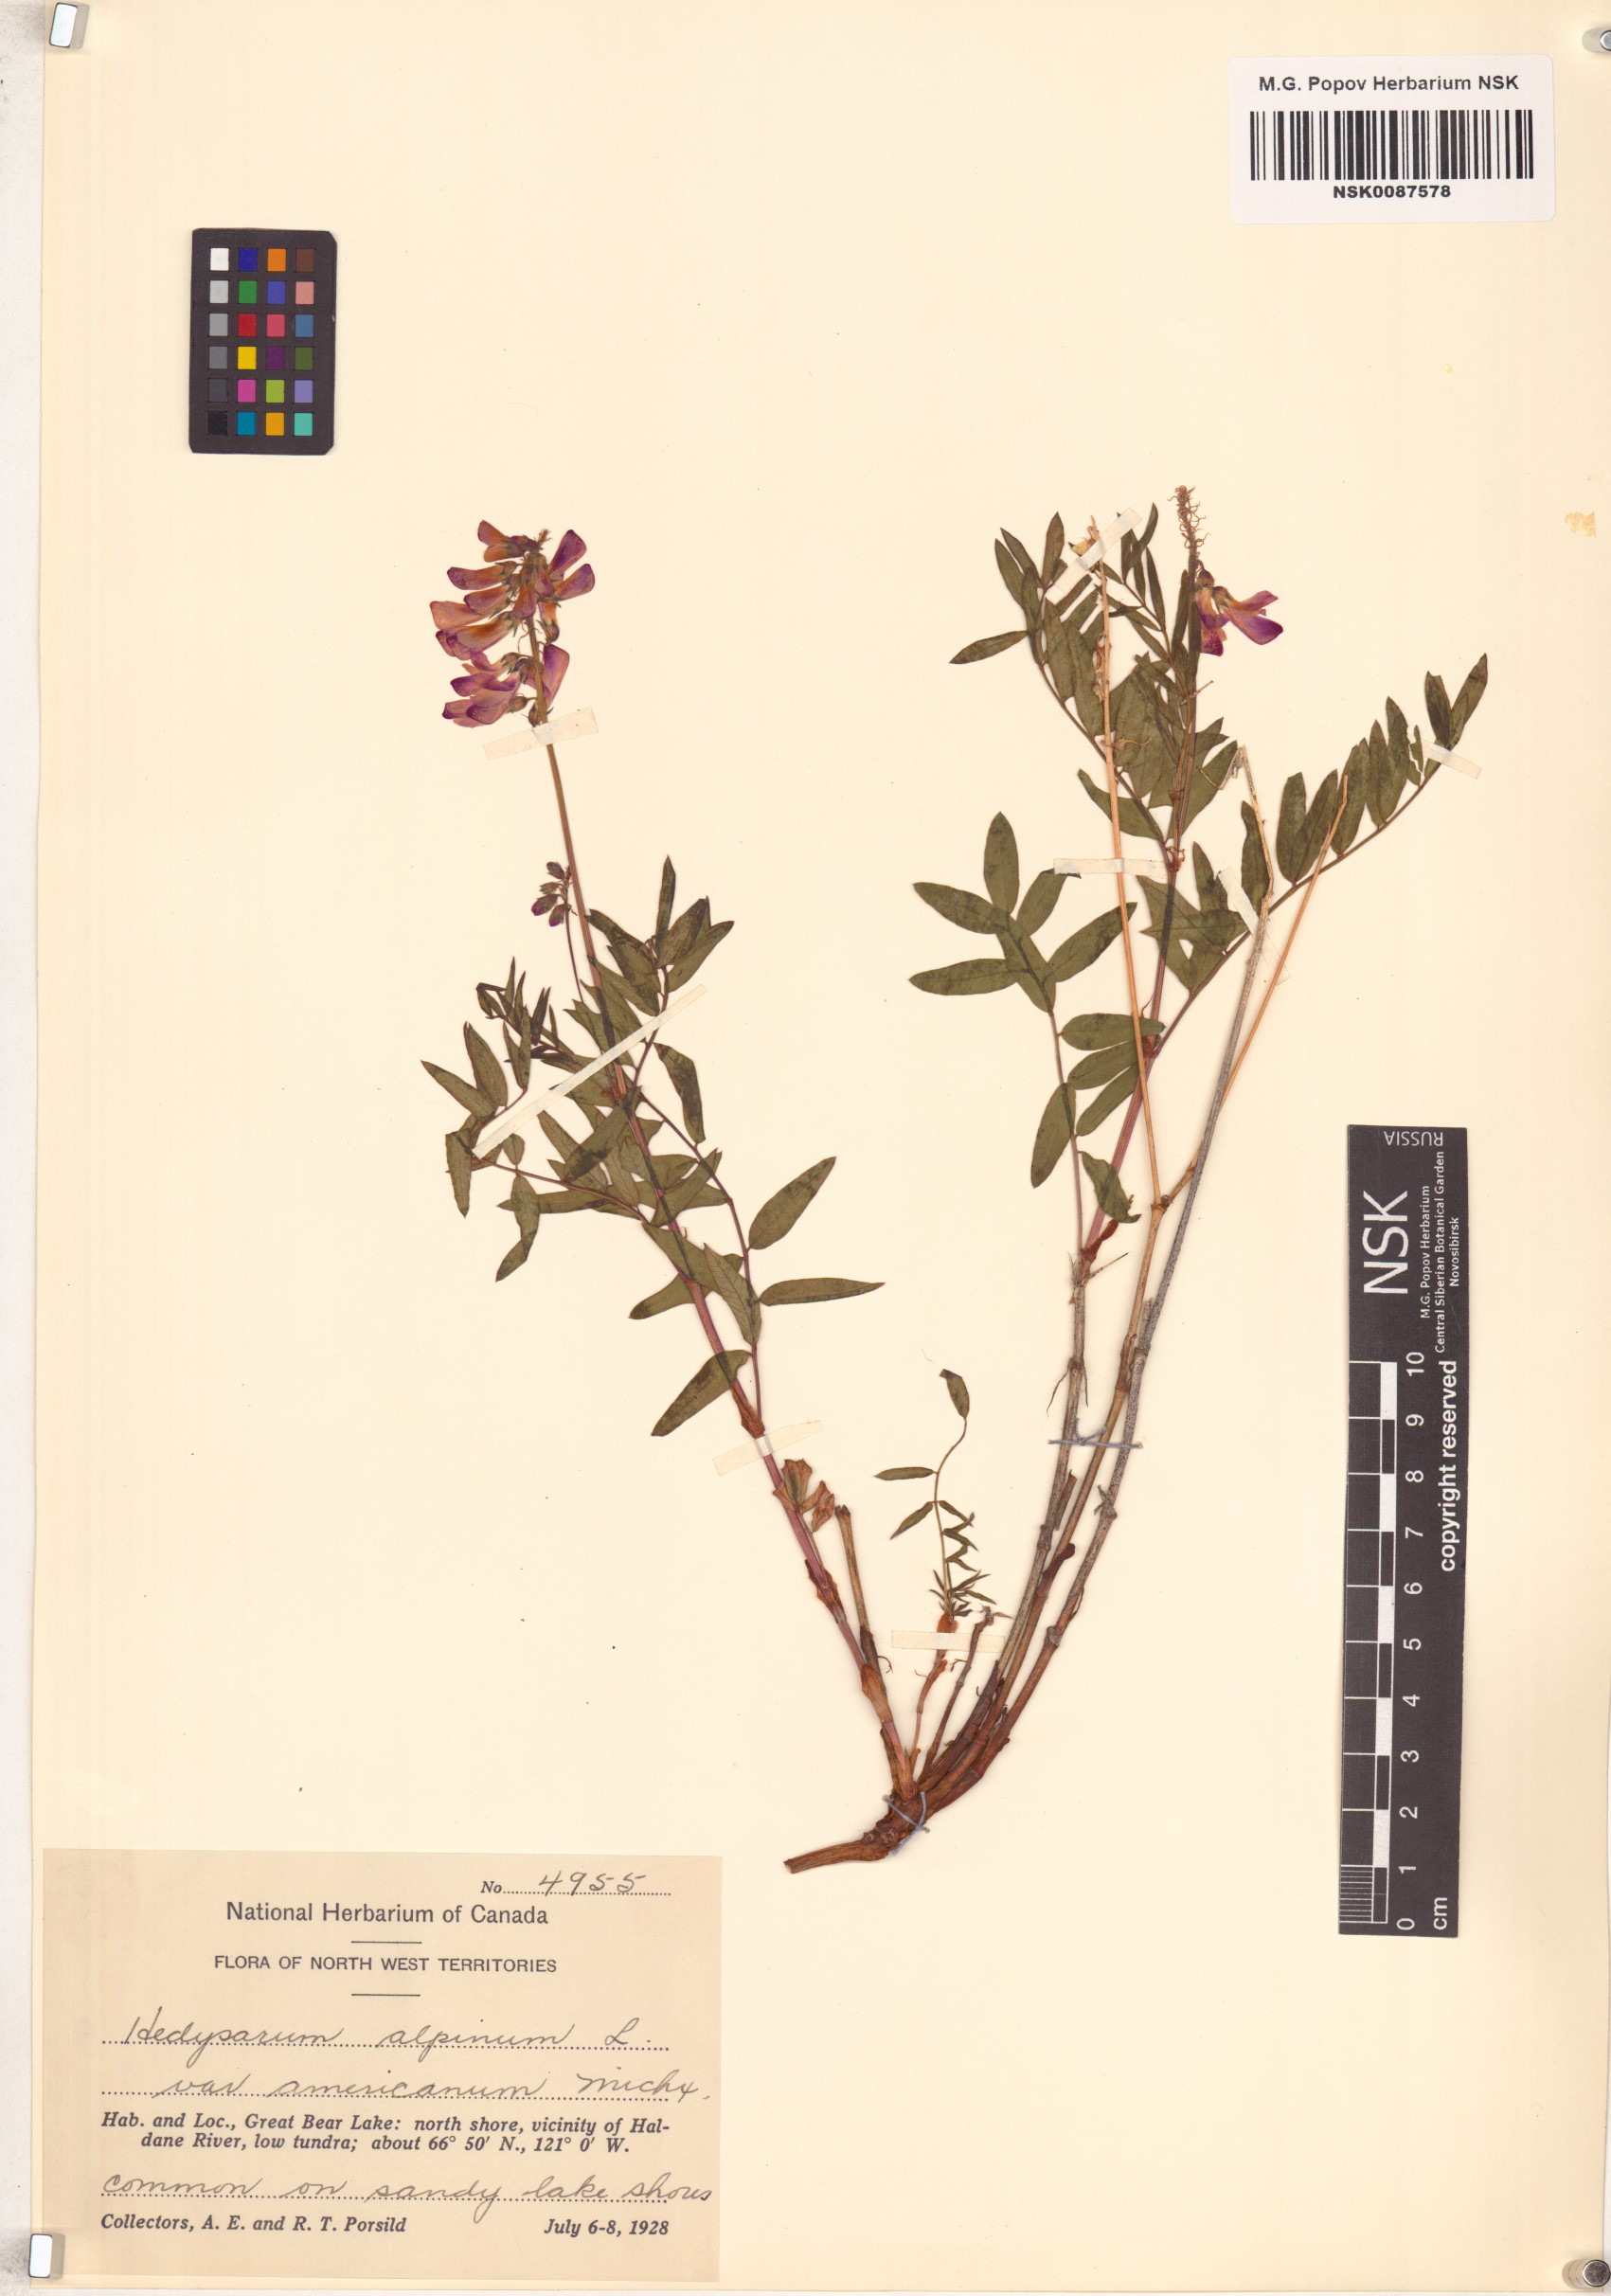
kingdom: Plantae
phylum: Tracheophyta
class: Magnoliopsida
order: Fabales
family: Fabaceae
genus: Hedysarum
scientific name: Hedysarum americanum
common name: Alpine hedysarum
